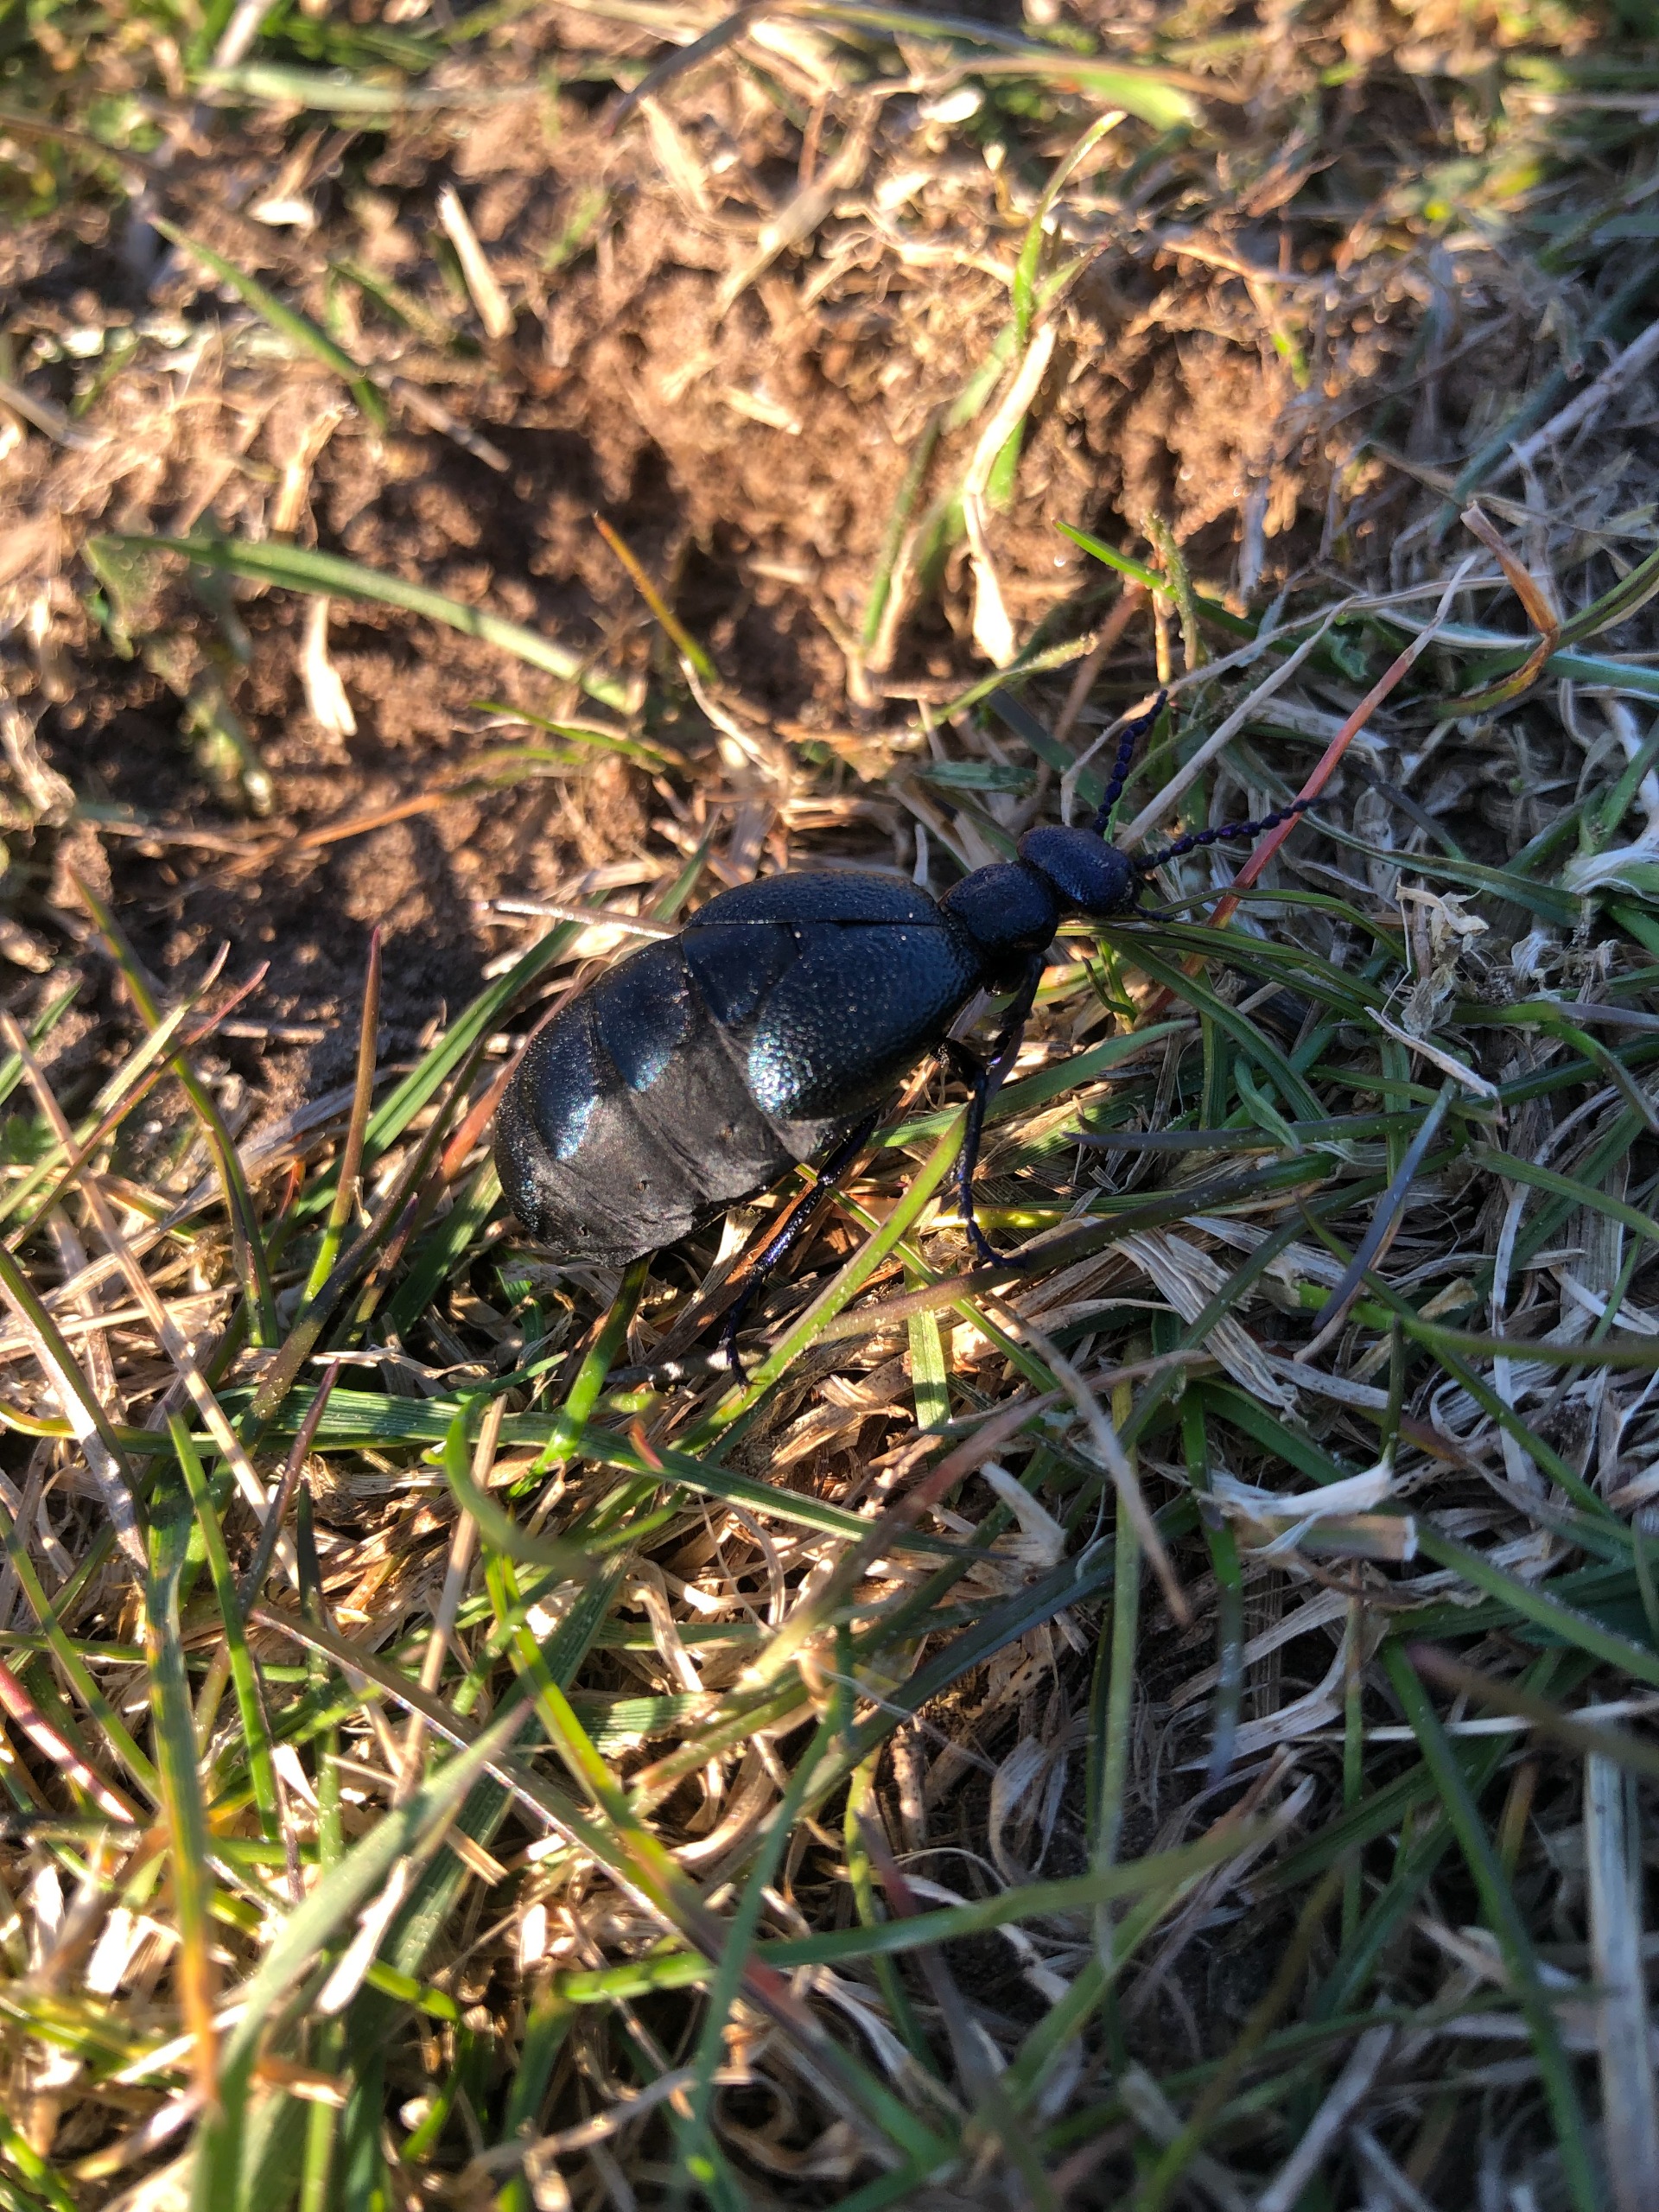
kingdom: Animalia
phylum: Arthropoda
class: Insecta
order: Coleoptera
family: Meloidae
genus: Meloe
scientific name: Meloe proscarabaeus
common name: Sort oliebille
